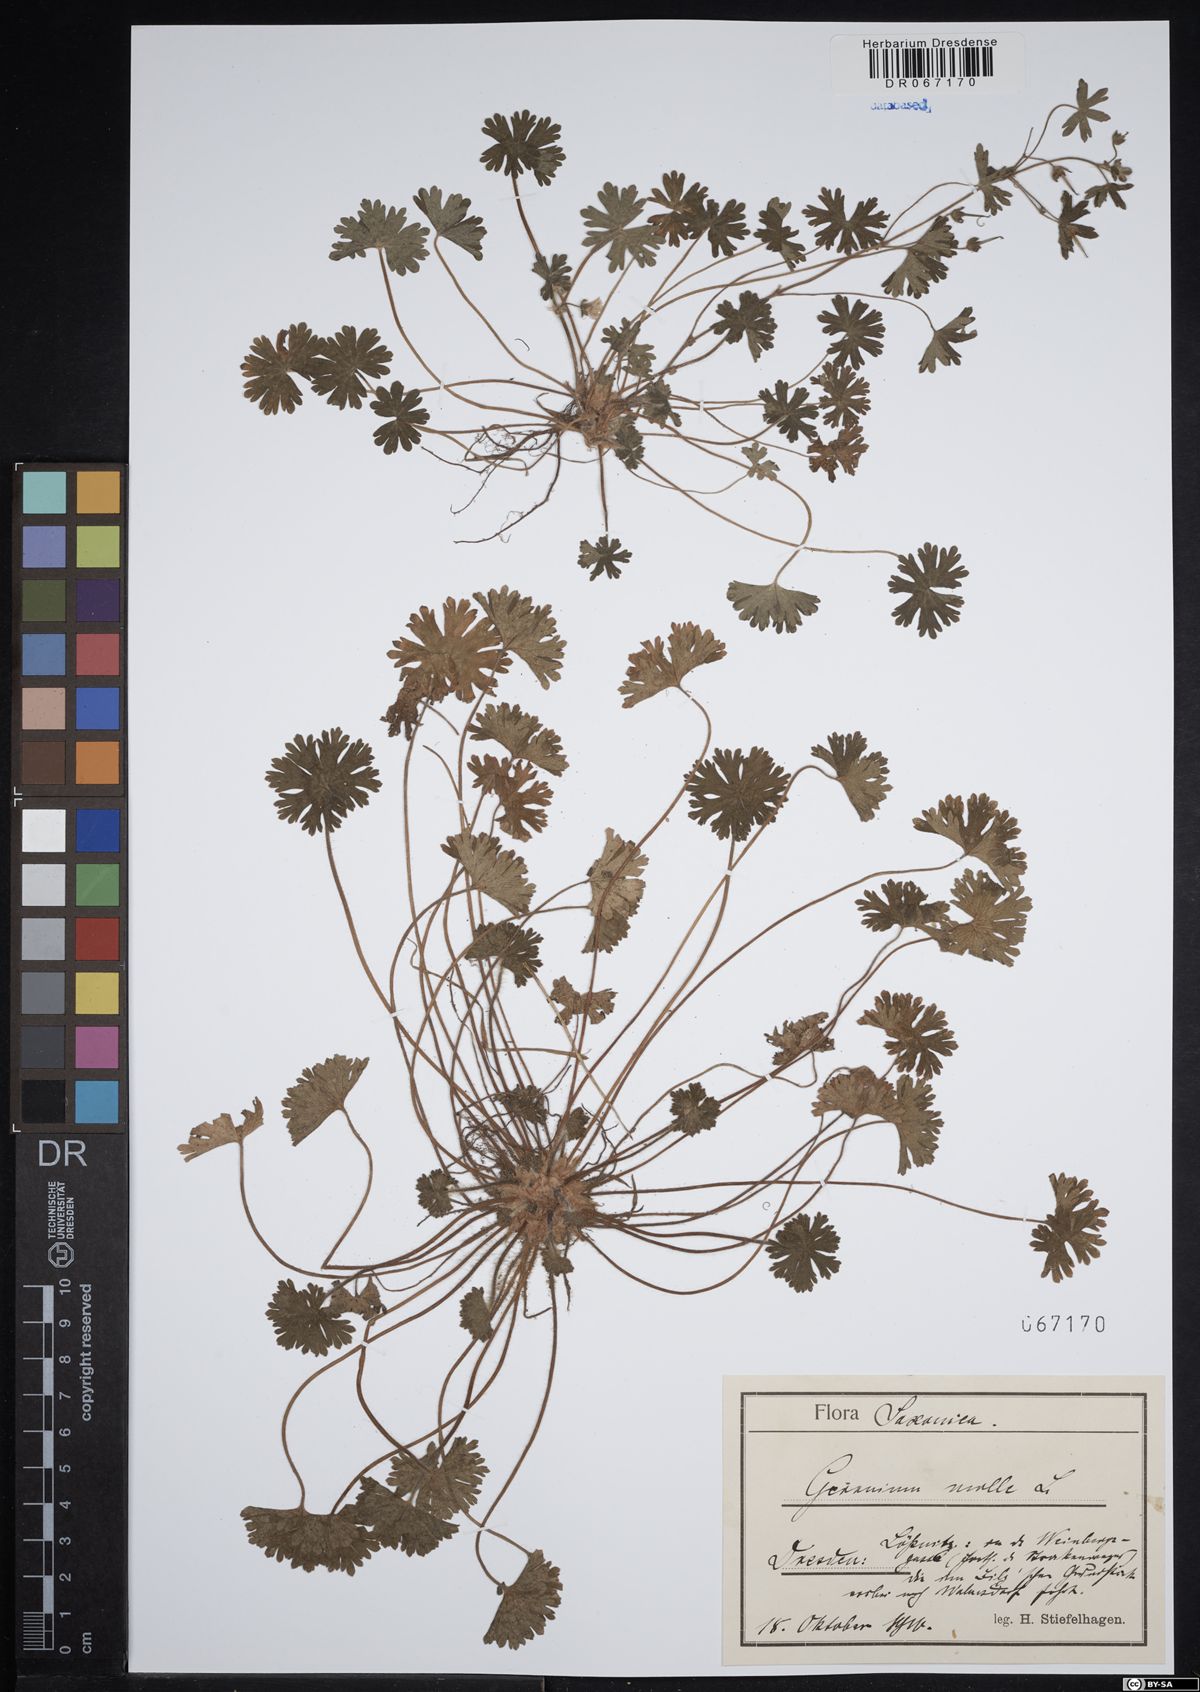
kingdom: Plantae
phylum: Tracheophyta
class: Magnoliopsida
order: Geraniales
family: Geraniaceae
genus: Geranium
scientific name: Geranium molle
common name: Dove's-foot crane's-bill
